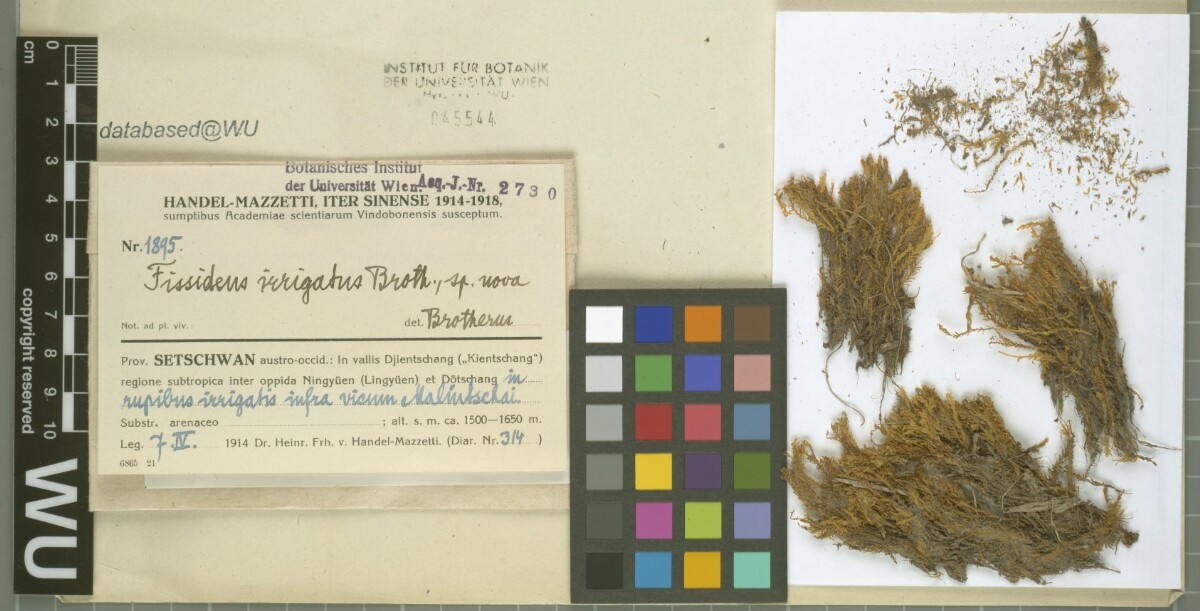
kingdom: Plantae
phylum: Bryophyta
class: Bryopsida
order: Dicranales
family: Fissidentaceae
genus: Fissidens
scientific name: Fissidens involutus
